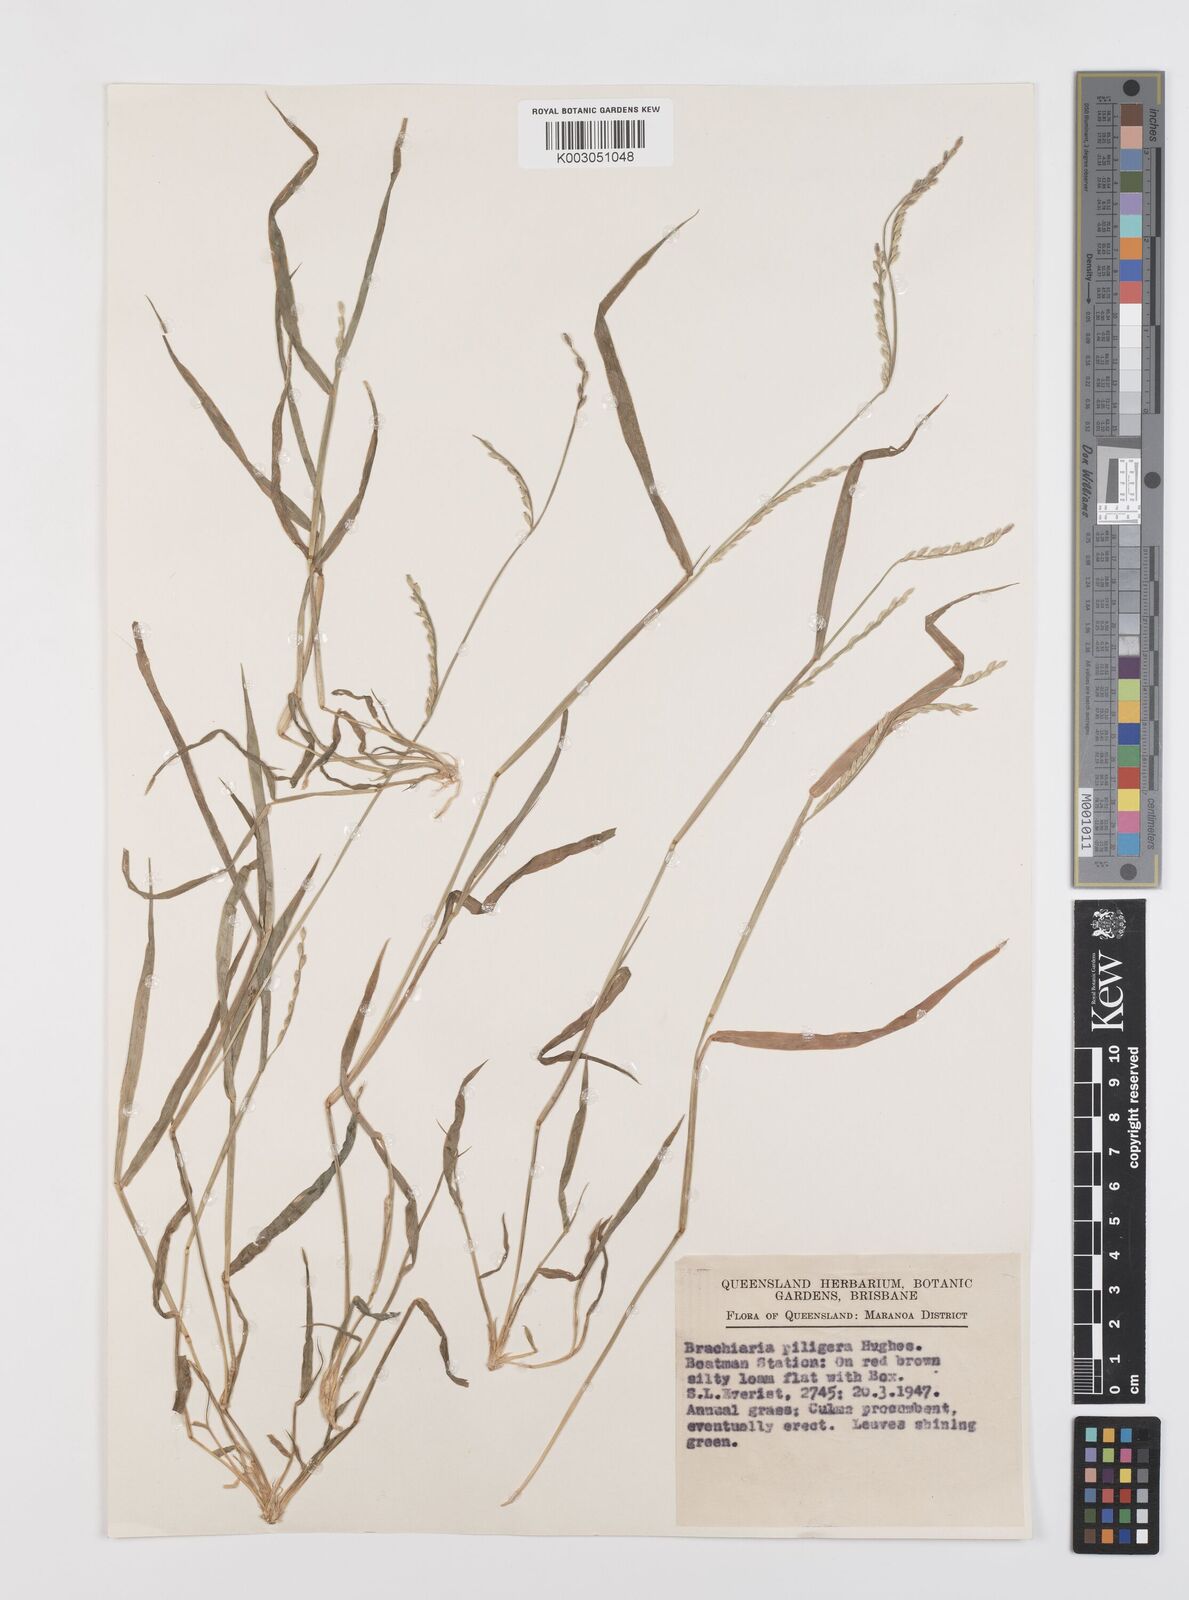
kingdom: Plantae
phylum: Tracheophyta
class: Liliopsida
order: Poales
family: Poaceae
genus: Urochloa
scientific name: Urochloa piligera
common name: Wattle signalgrass
